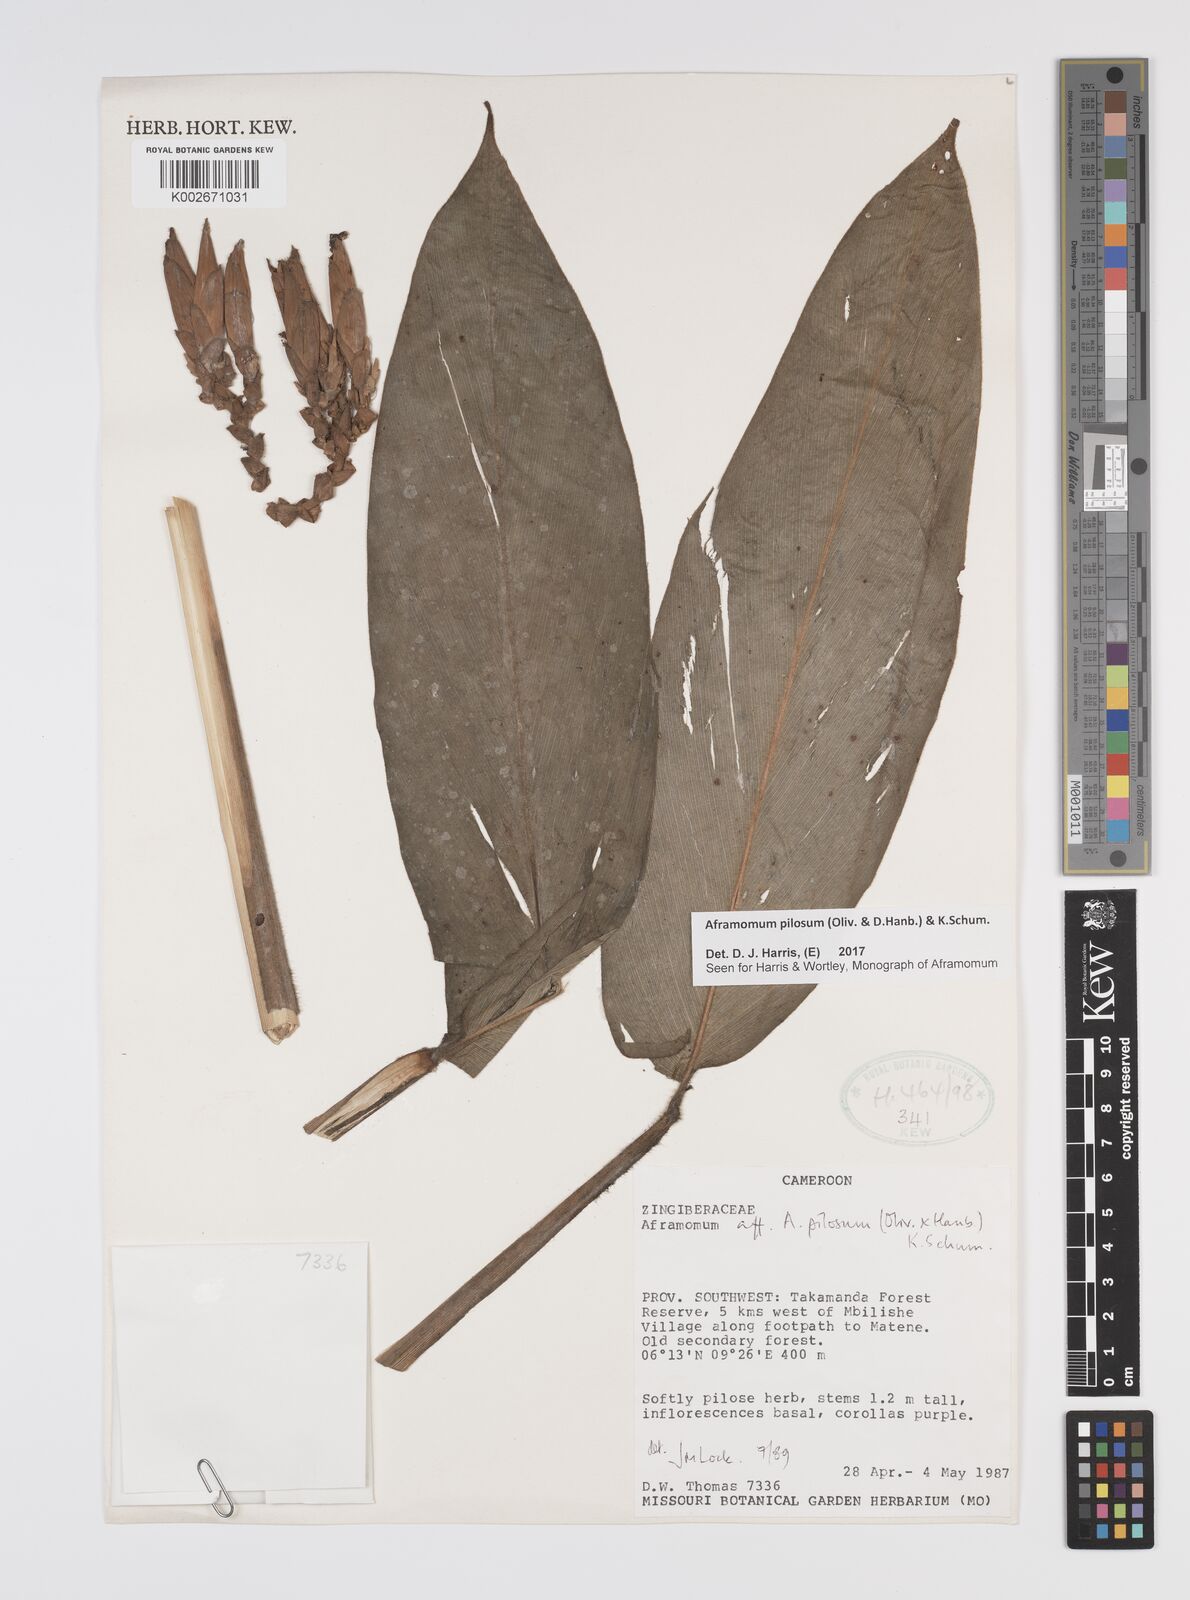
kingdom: Plantae
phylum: Tracheophyta
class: Liliopsida
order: Zingiberales
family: Zingiberaceae
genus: Aframomum
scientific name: Aframomum pilosum
